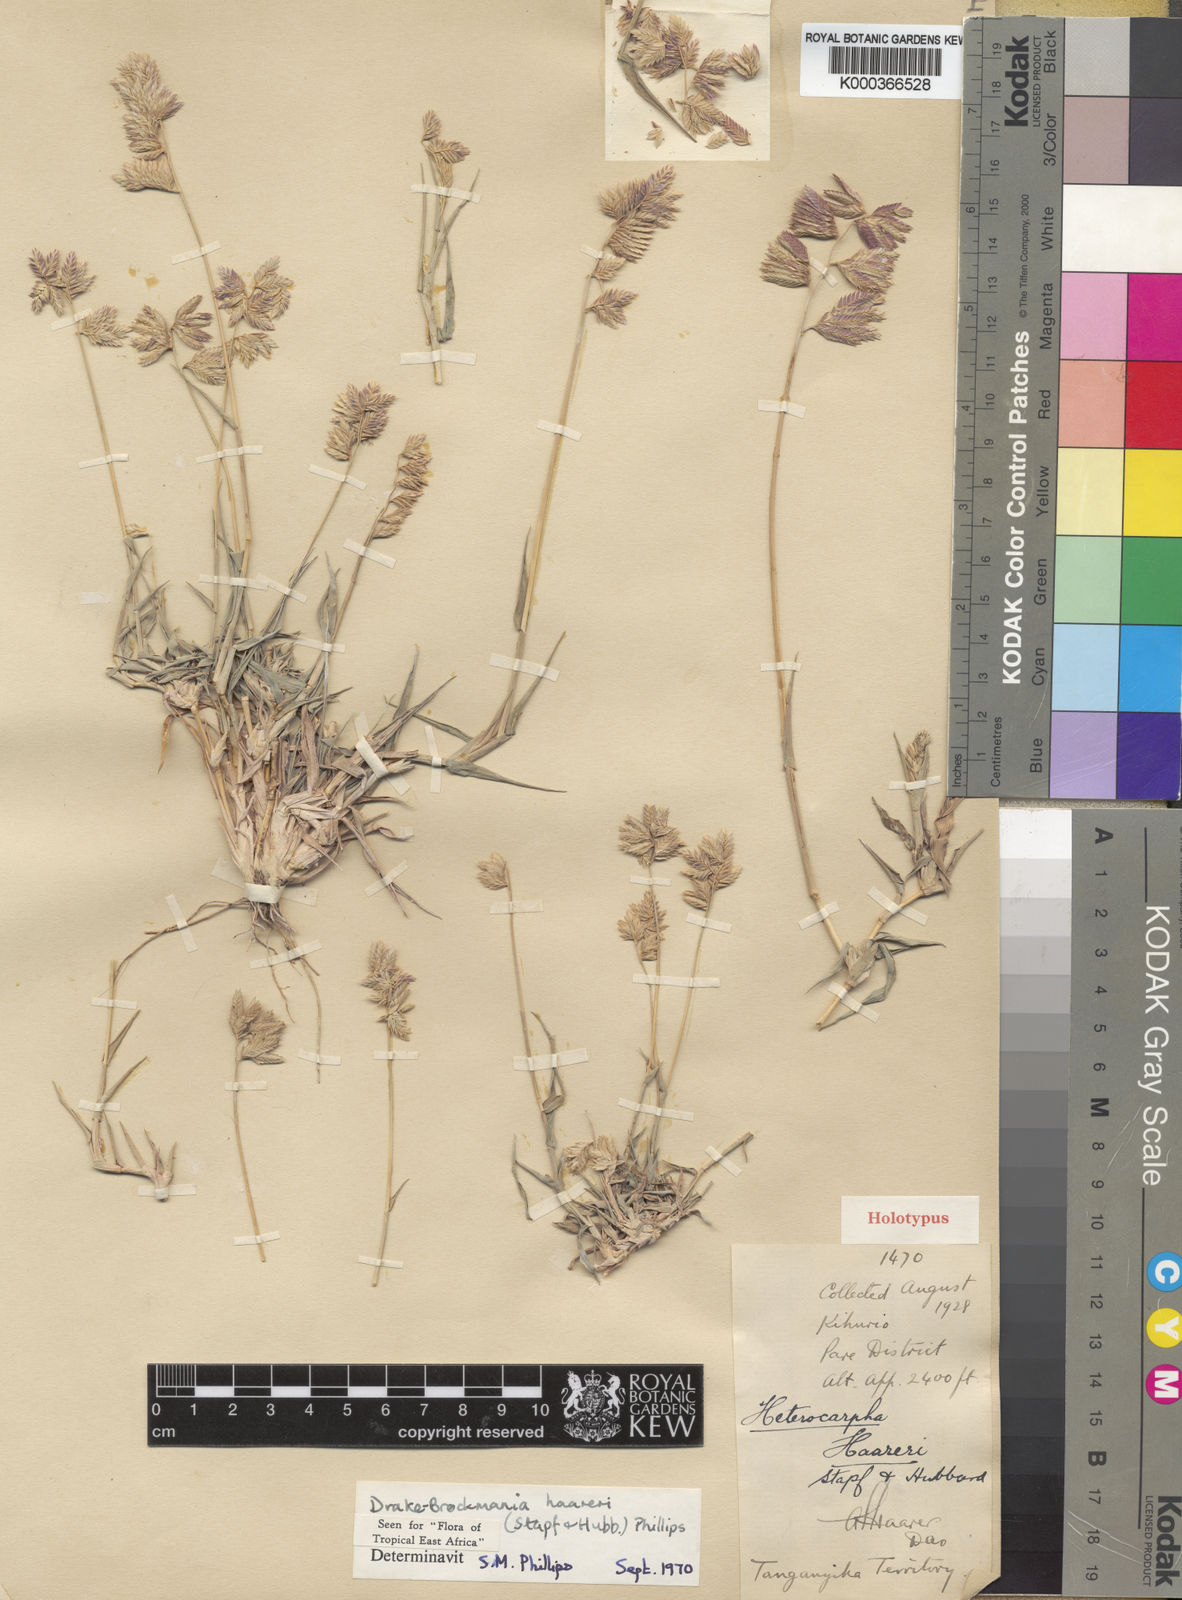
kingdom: Plantae
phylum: Tracheophyta
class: Liliopsida
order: Poales
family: Poaceae
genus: Dinebra
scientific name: Dinebra haareri
